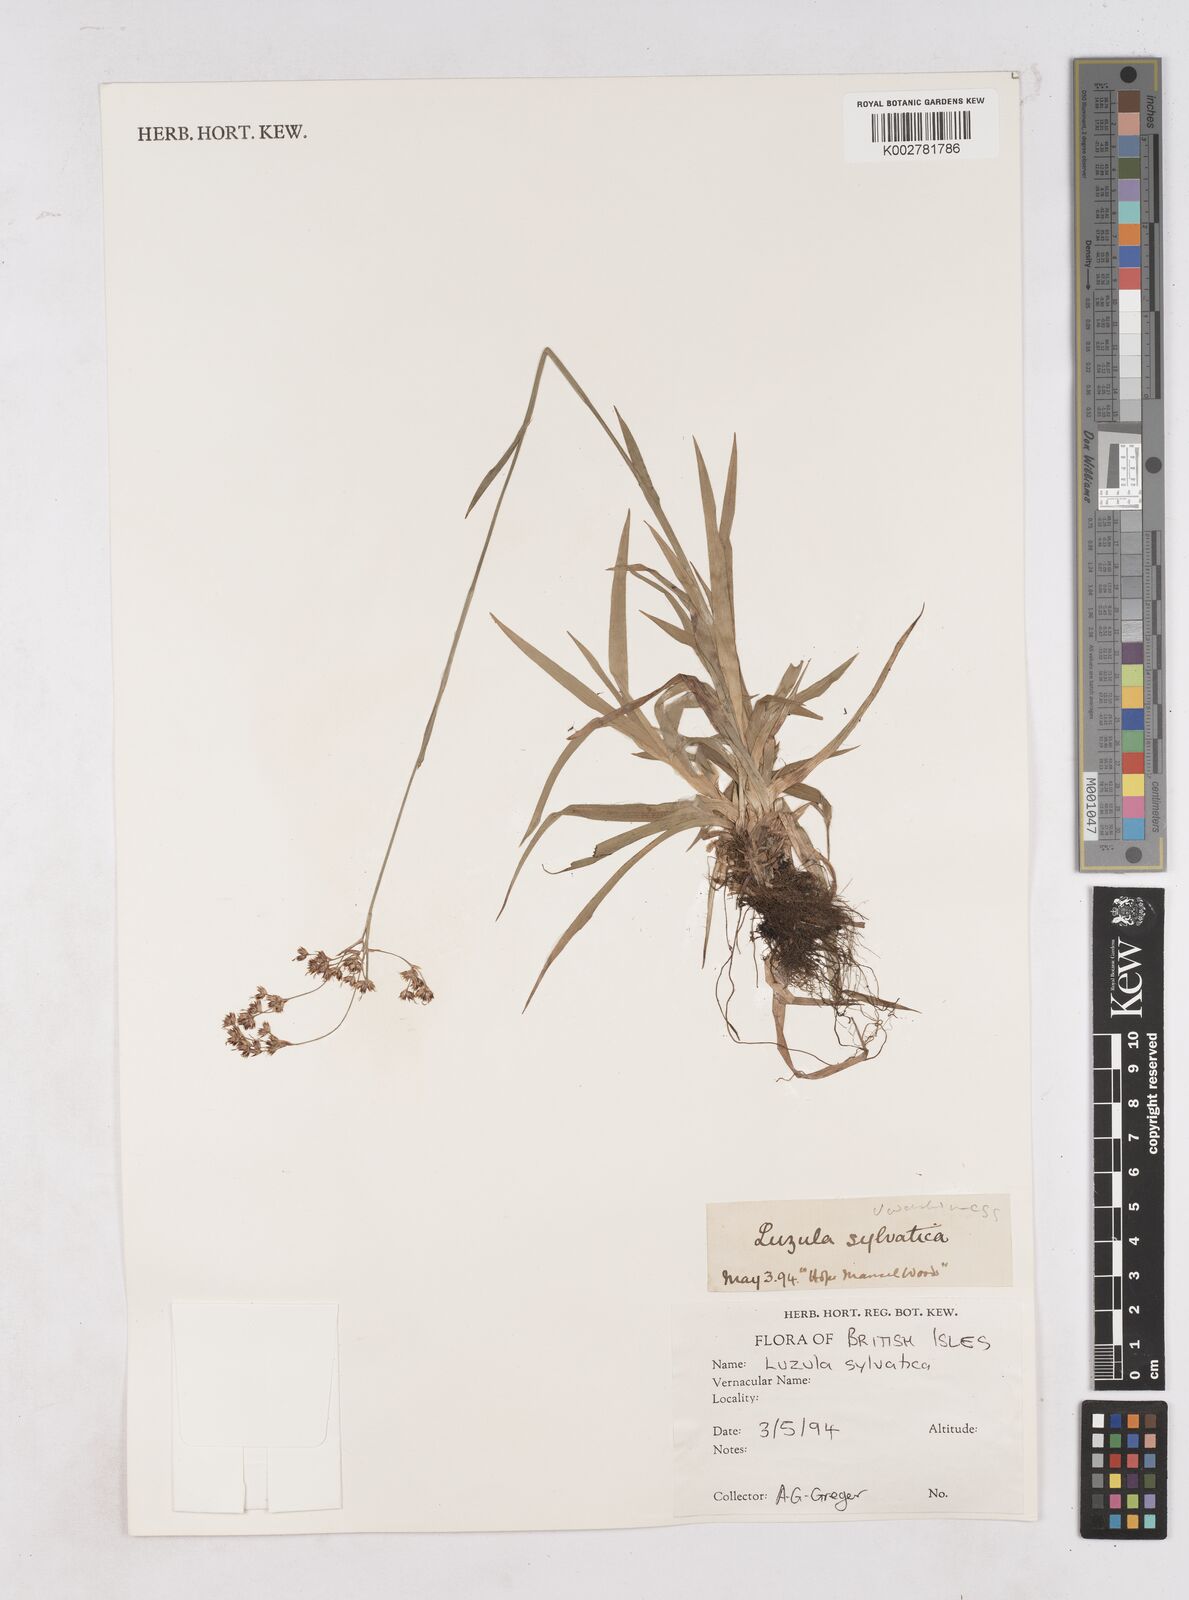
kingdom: Plantae
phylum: Tracheophyta
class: Liliopsida
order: Poales
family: Juncaceae
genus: Luzula
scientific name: Luzula sylvatica
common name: Great wood-rush
